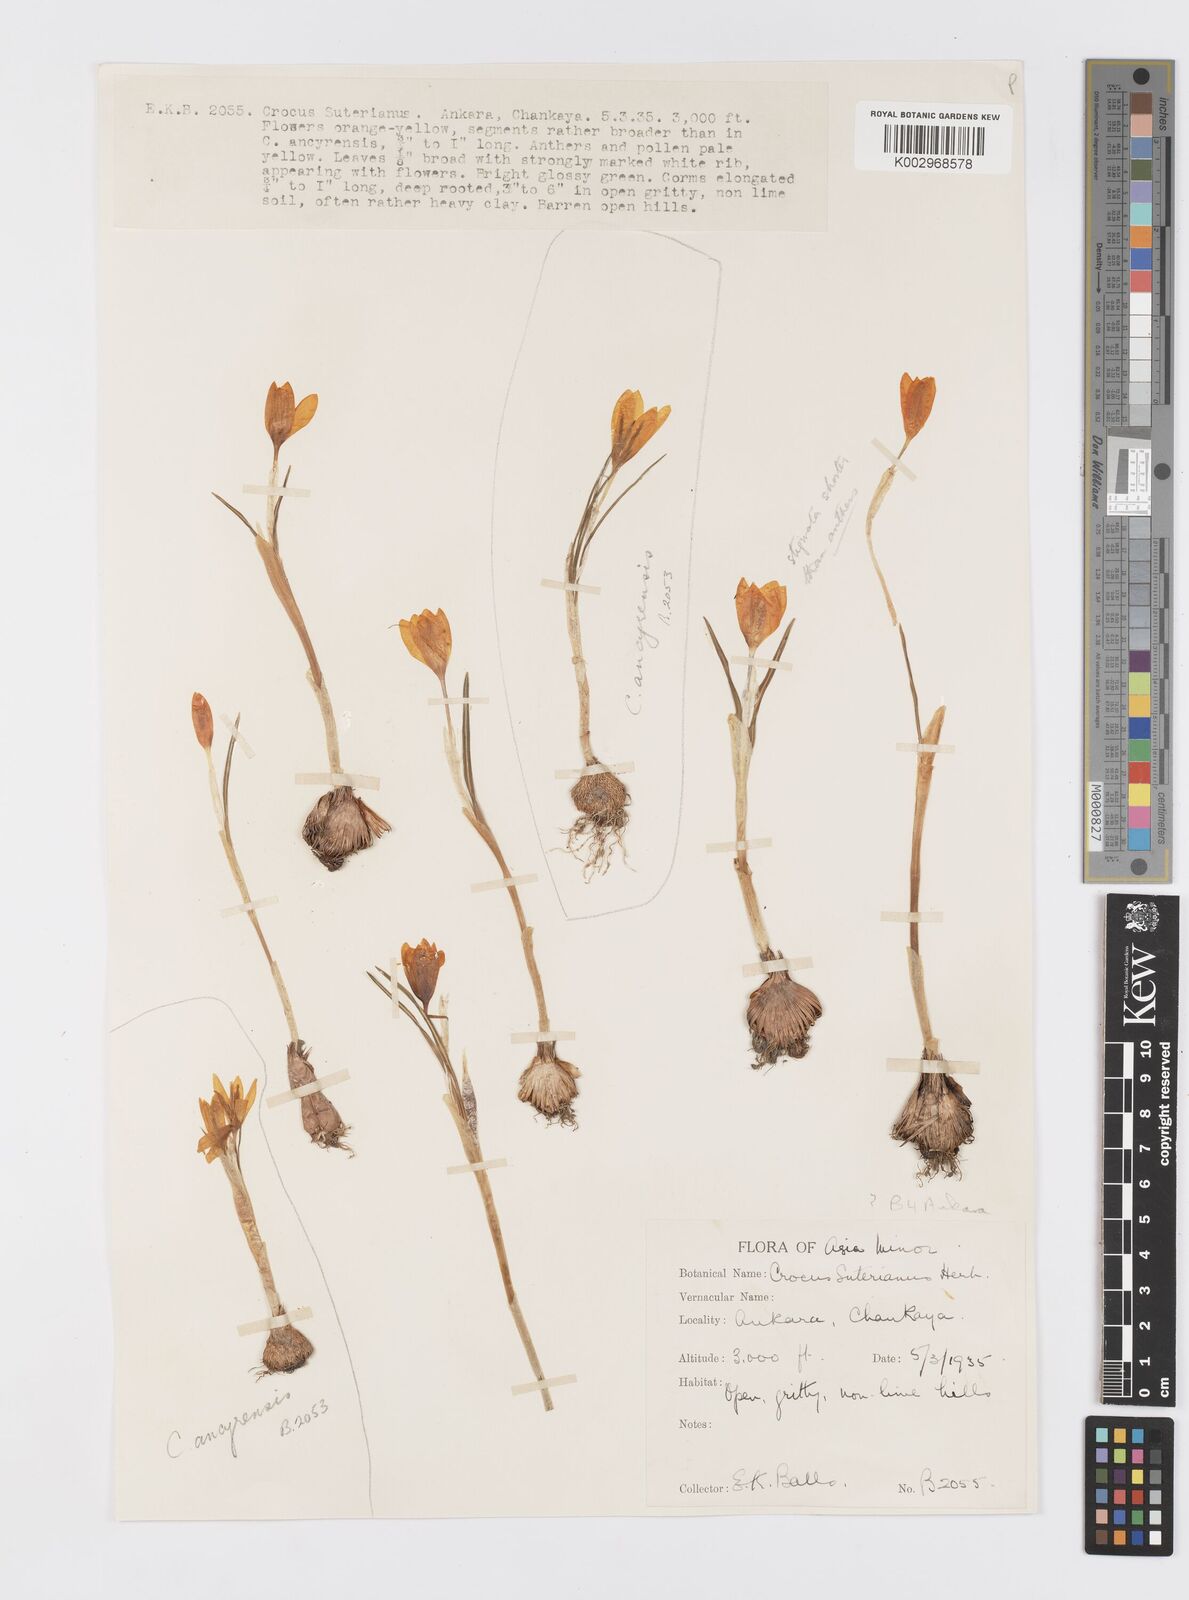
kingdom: Plantae
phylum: Tracheophyta
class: Liliopsida
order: Asparagales
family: Iridaceae
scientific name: Iridaceae
